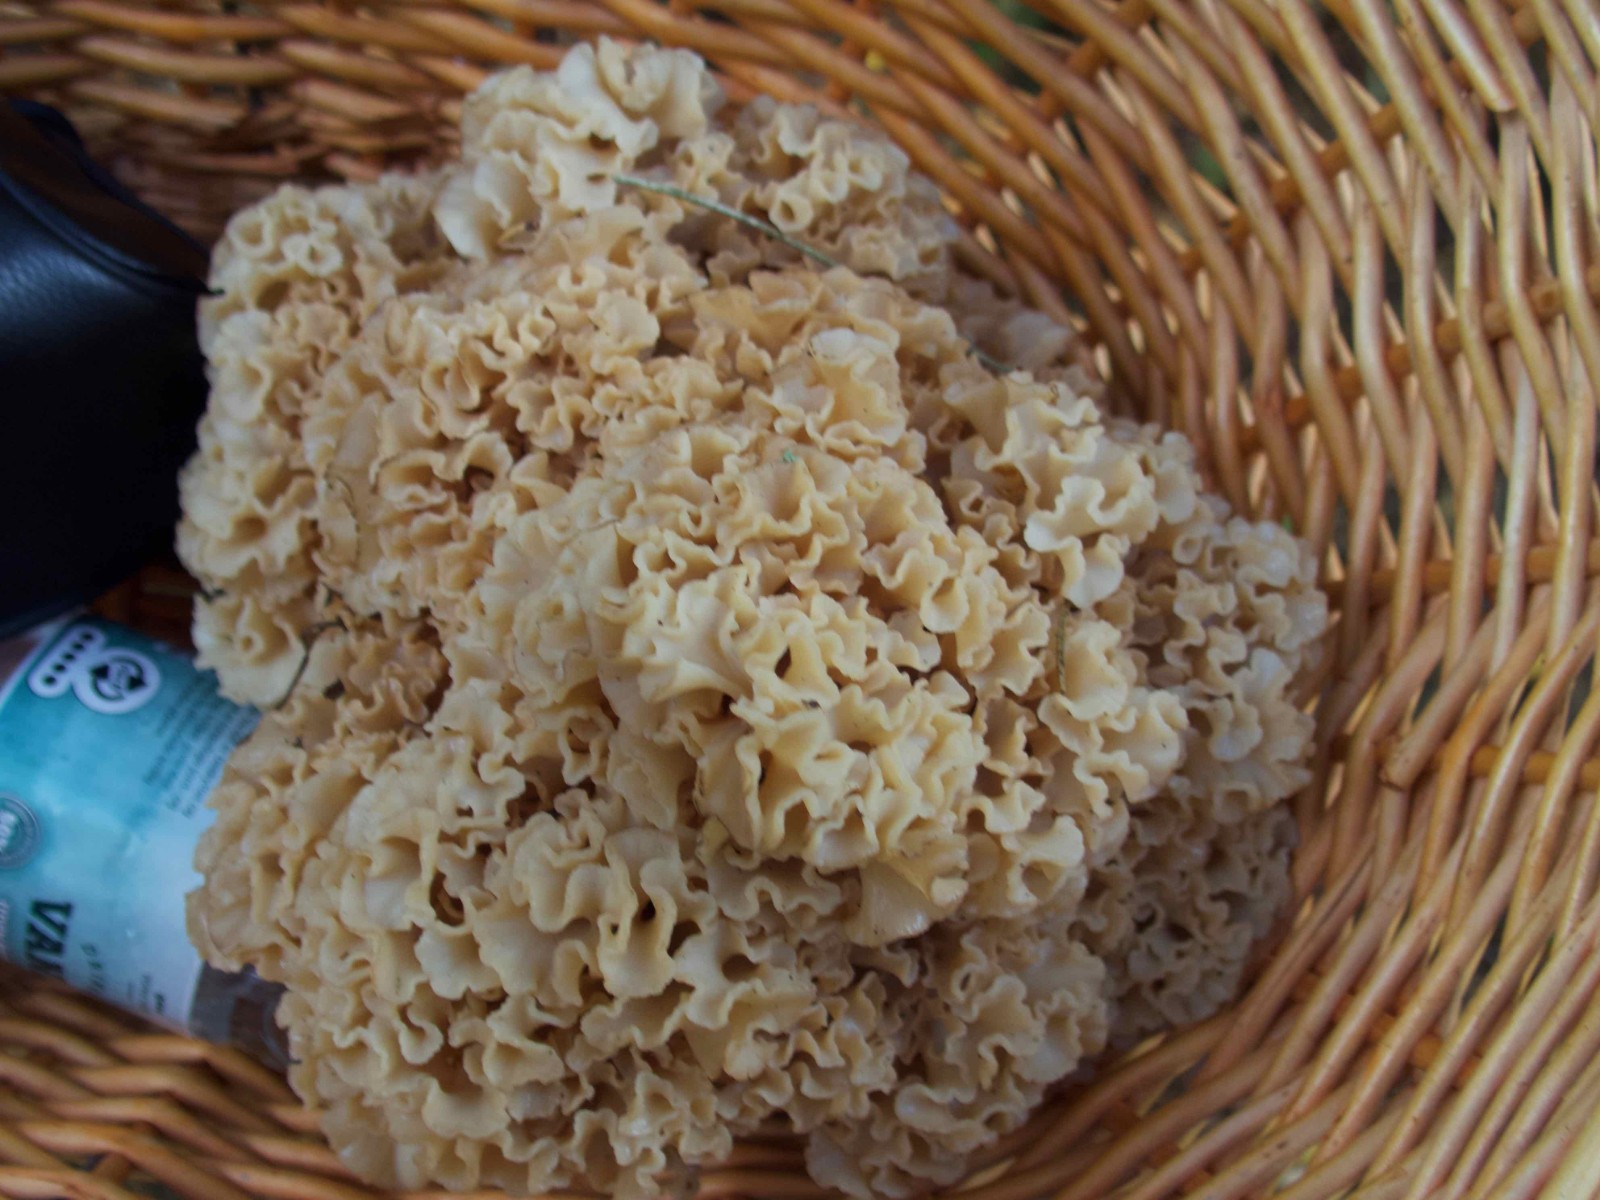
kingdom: Fungi
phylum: Basidiomycota
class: Agaricomycetes
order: Polyporales
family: Sparassidaceae
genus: Sparassis
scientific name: Sparassis crispa
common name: kruset blomkålssvamp
